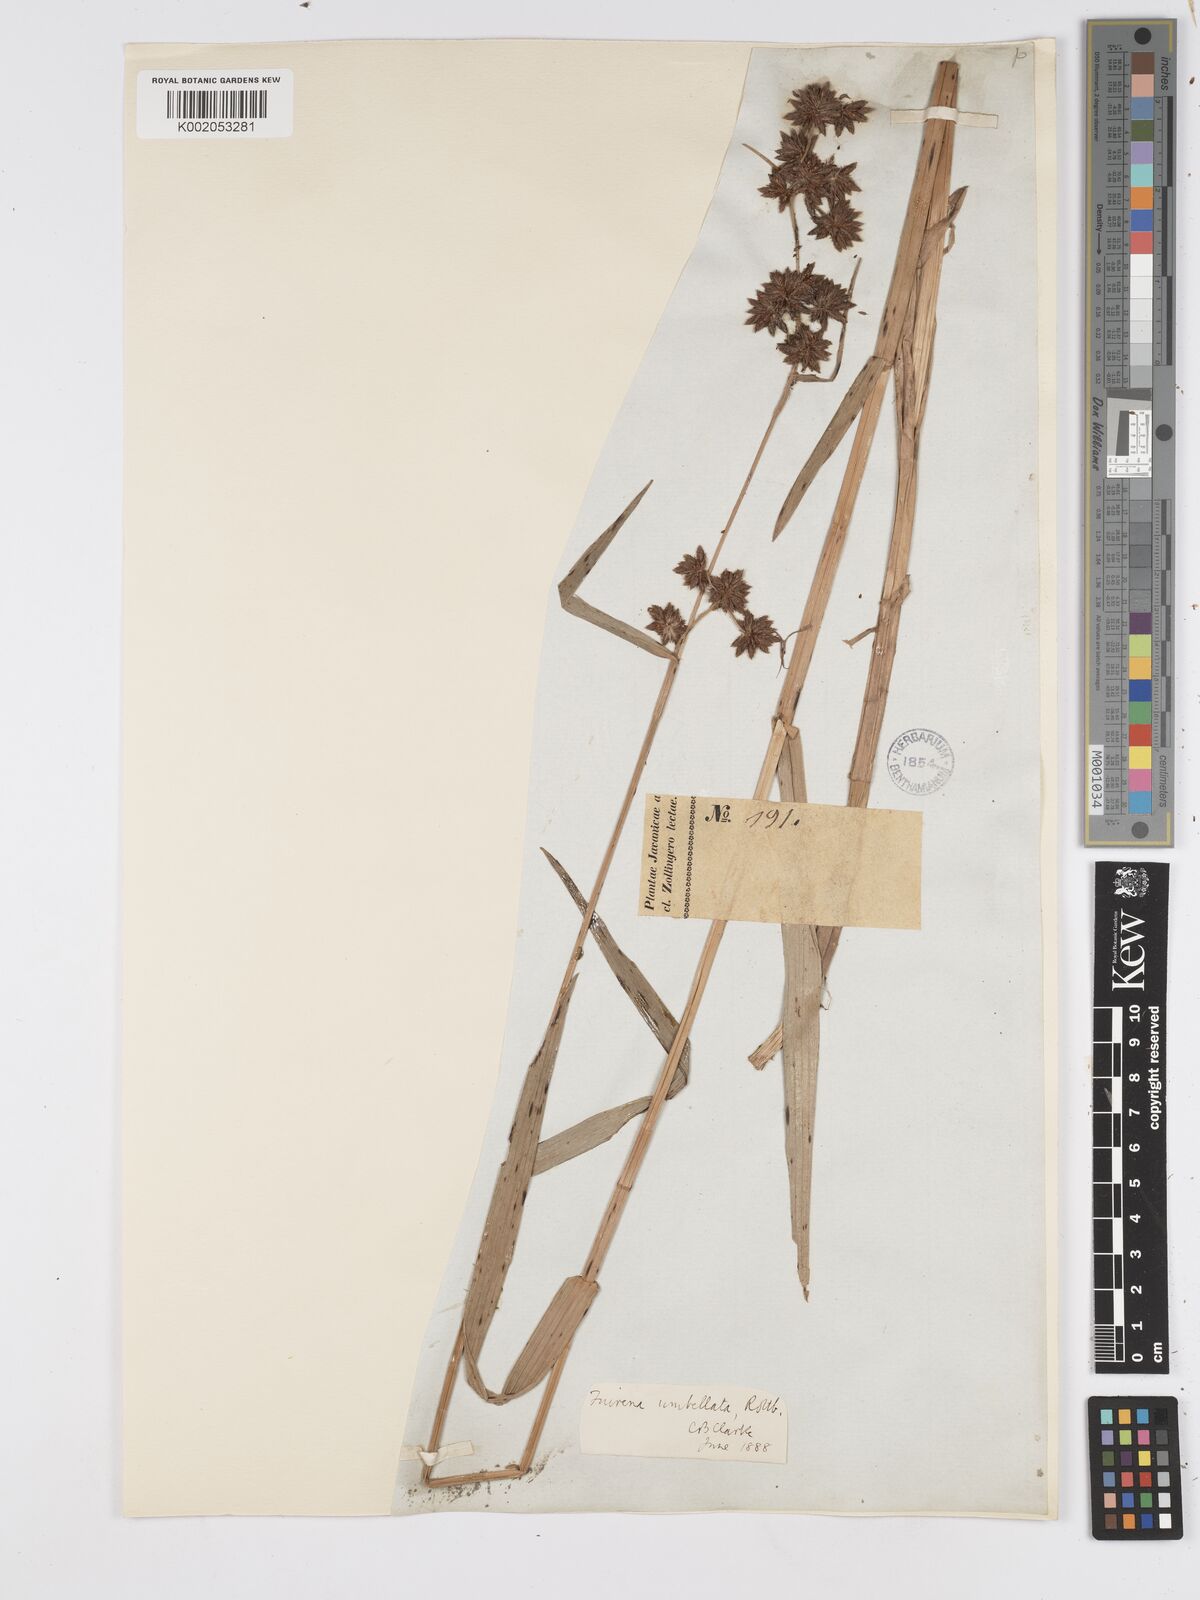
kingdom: Plantae
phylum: Tracheophyta
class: Liliopsida
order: Poales
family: Cyperaceae
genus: Fuirena
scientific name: Fuirena umbellata
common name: Yefen
